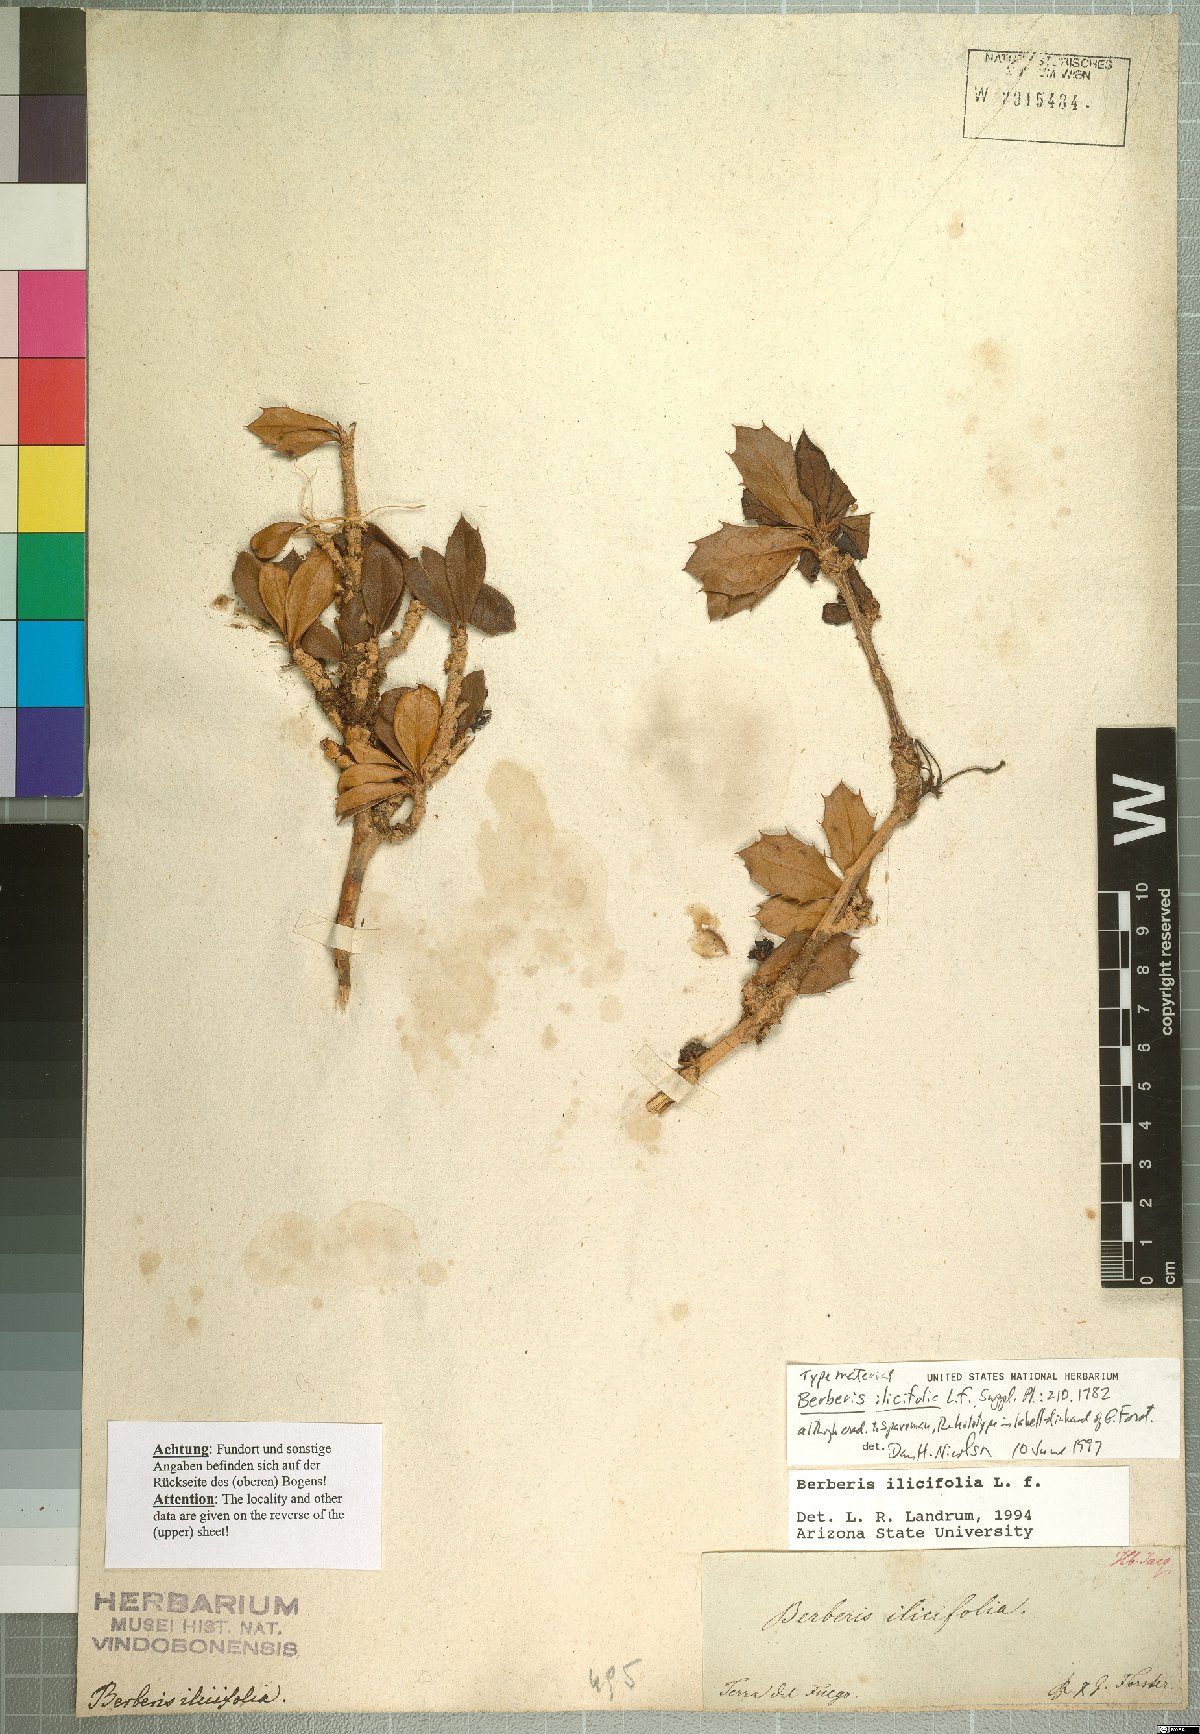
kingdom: Plantae
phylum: Tracheophyta
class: Magnoliopsida
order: Ranunculales
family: Berberidaceae
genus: Berberis
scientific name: Berberis ilicifolia
